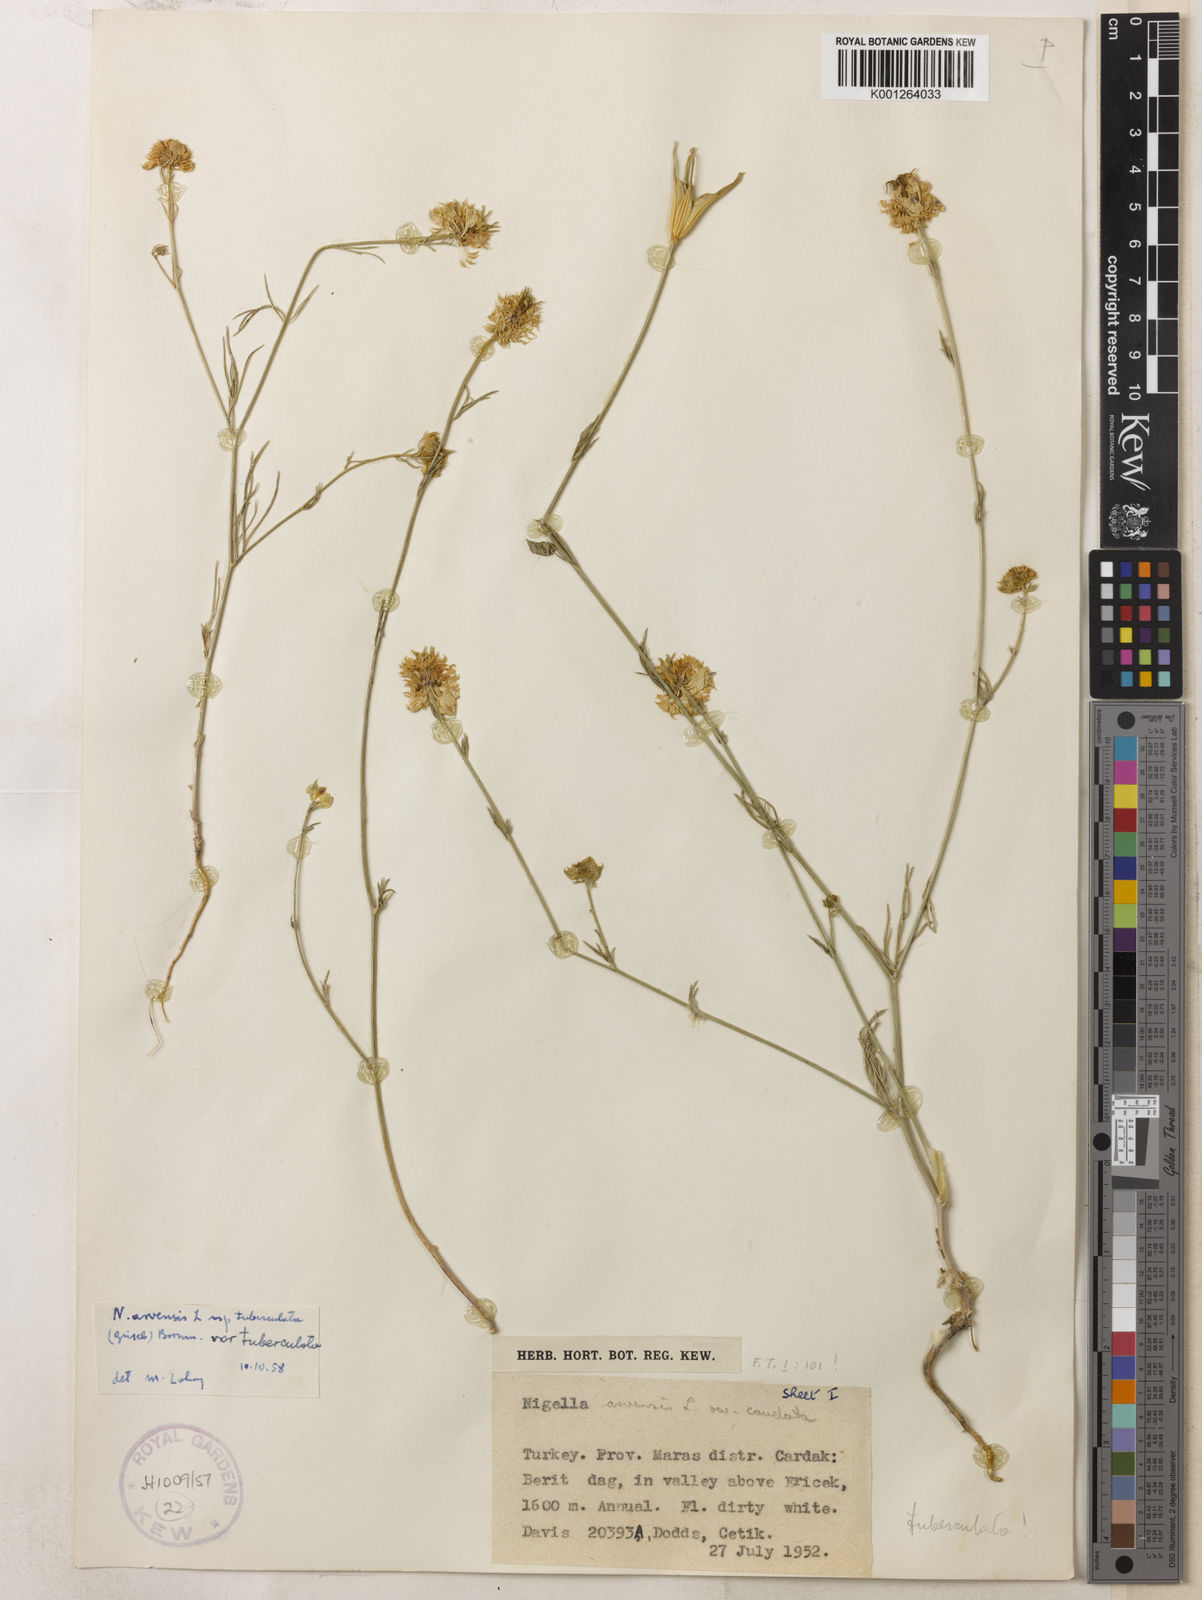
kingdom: Plantae
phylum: Tracheophyta
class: Magnoliopsida
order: Ranunculales
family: Ranunculaceae
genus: Nigella
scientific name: Nigella arvensis
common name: Wild fennel-flower
